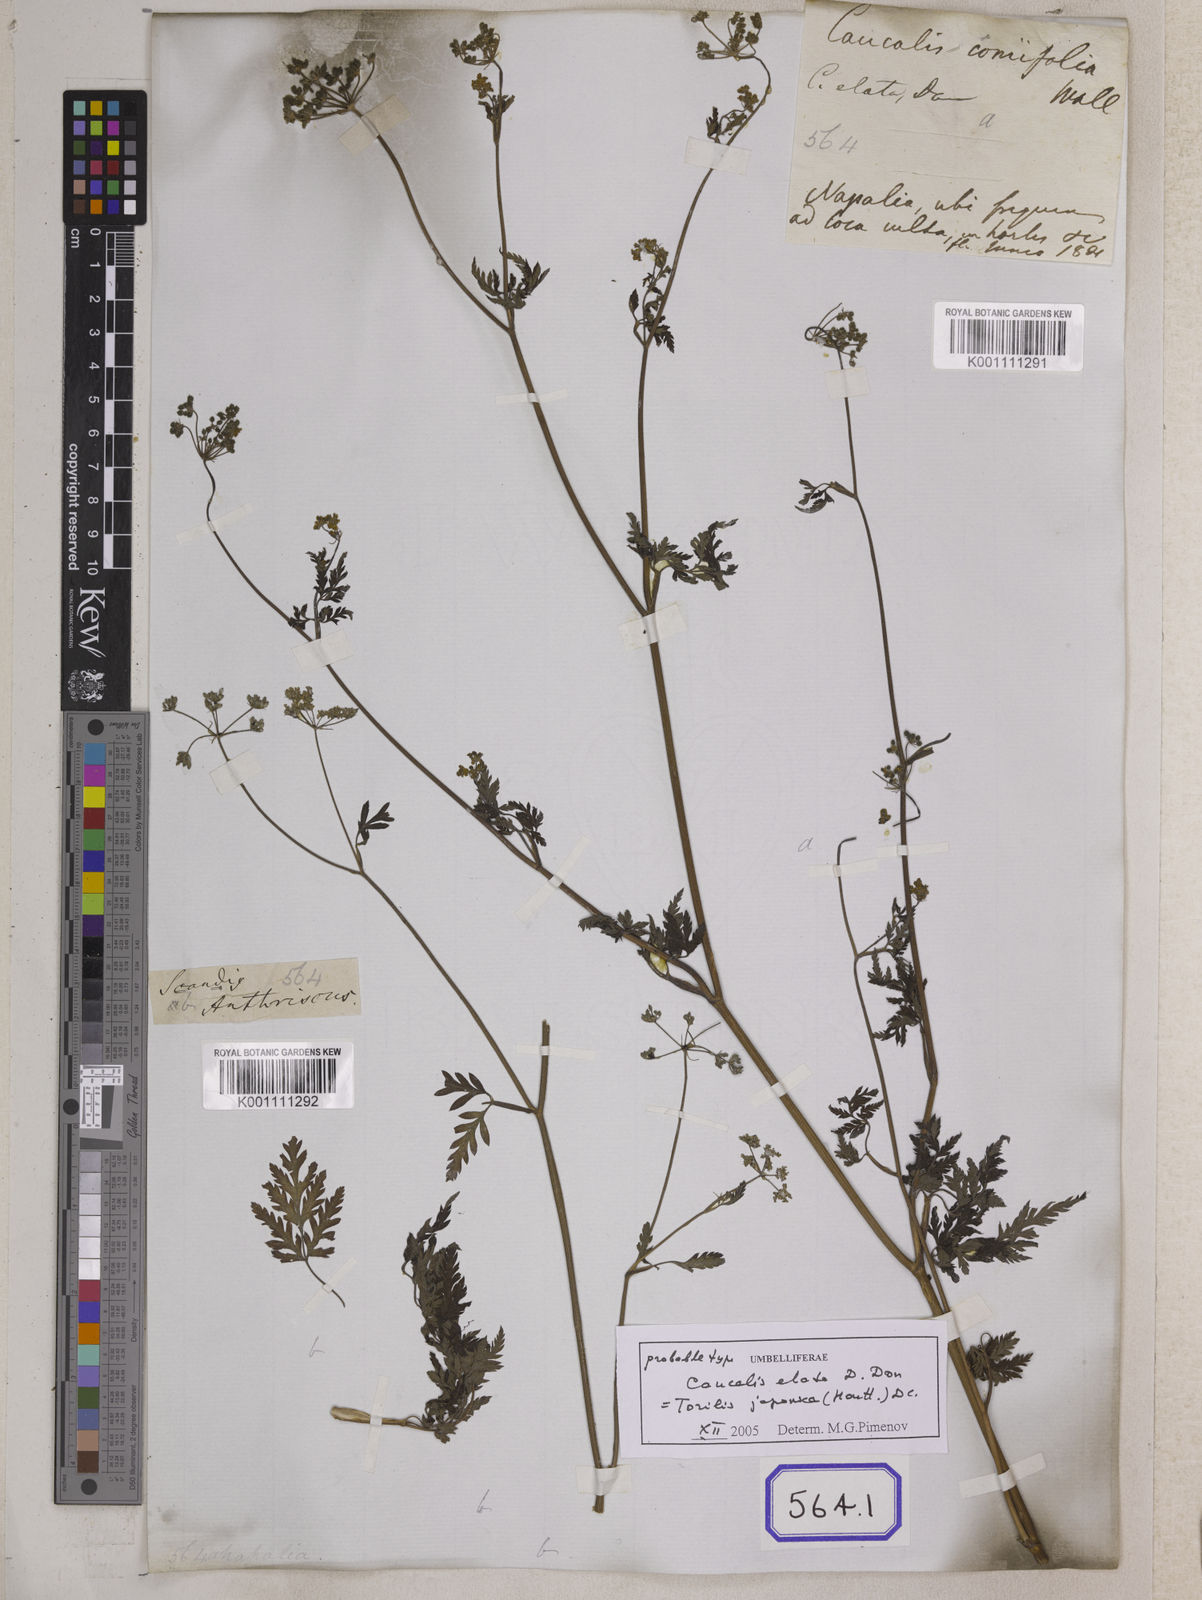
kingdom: Plantae
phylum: Tracheophyta
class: Magnoliopsida
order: Apiales
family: Apiaceae
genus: Torilis
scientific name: Torilis japonica
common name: Upright hedge-parsley
